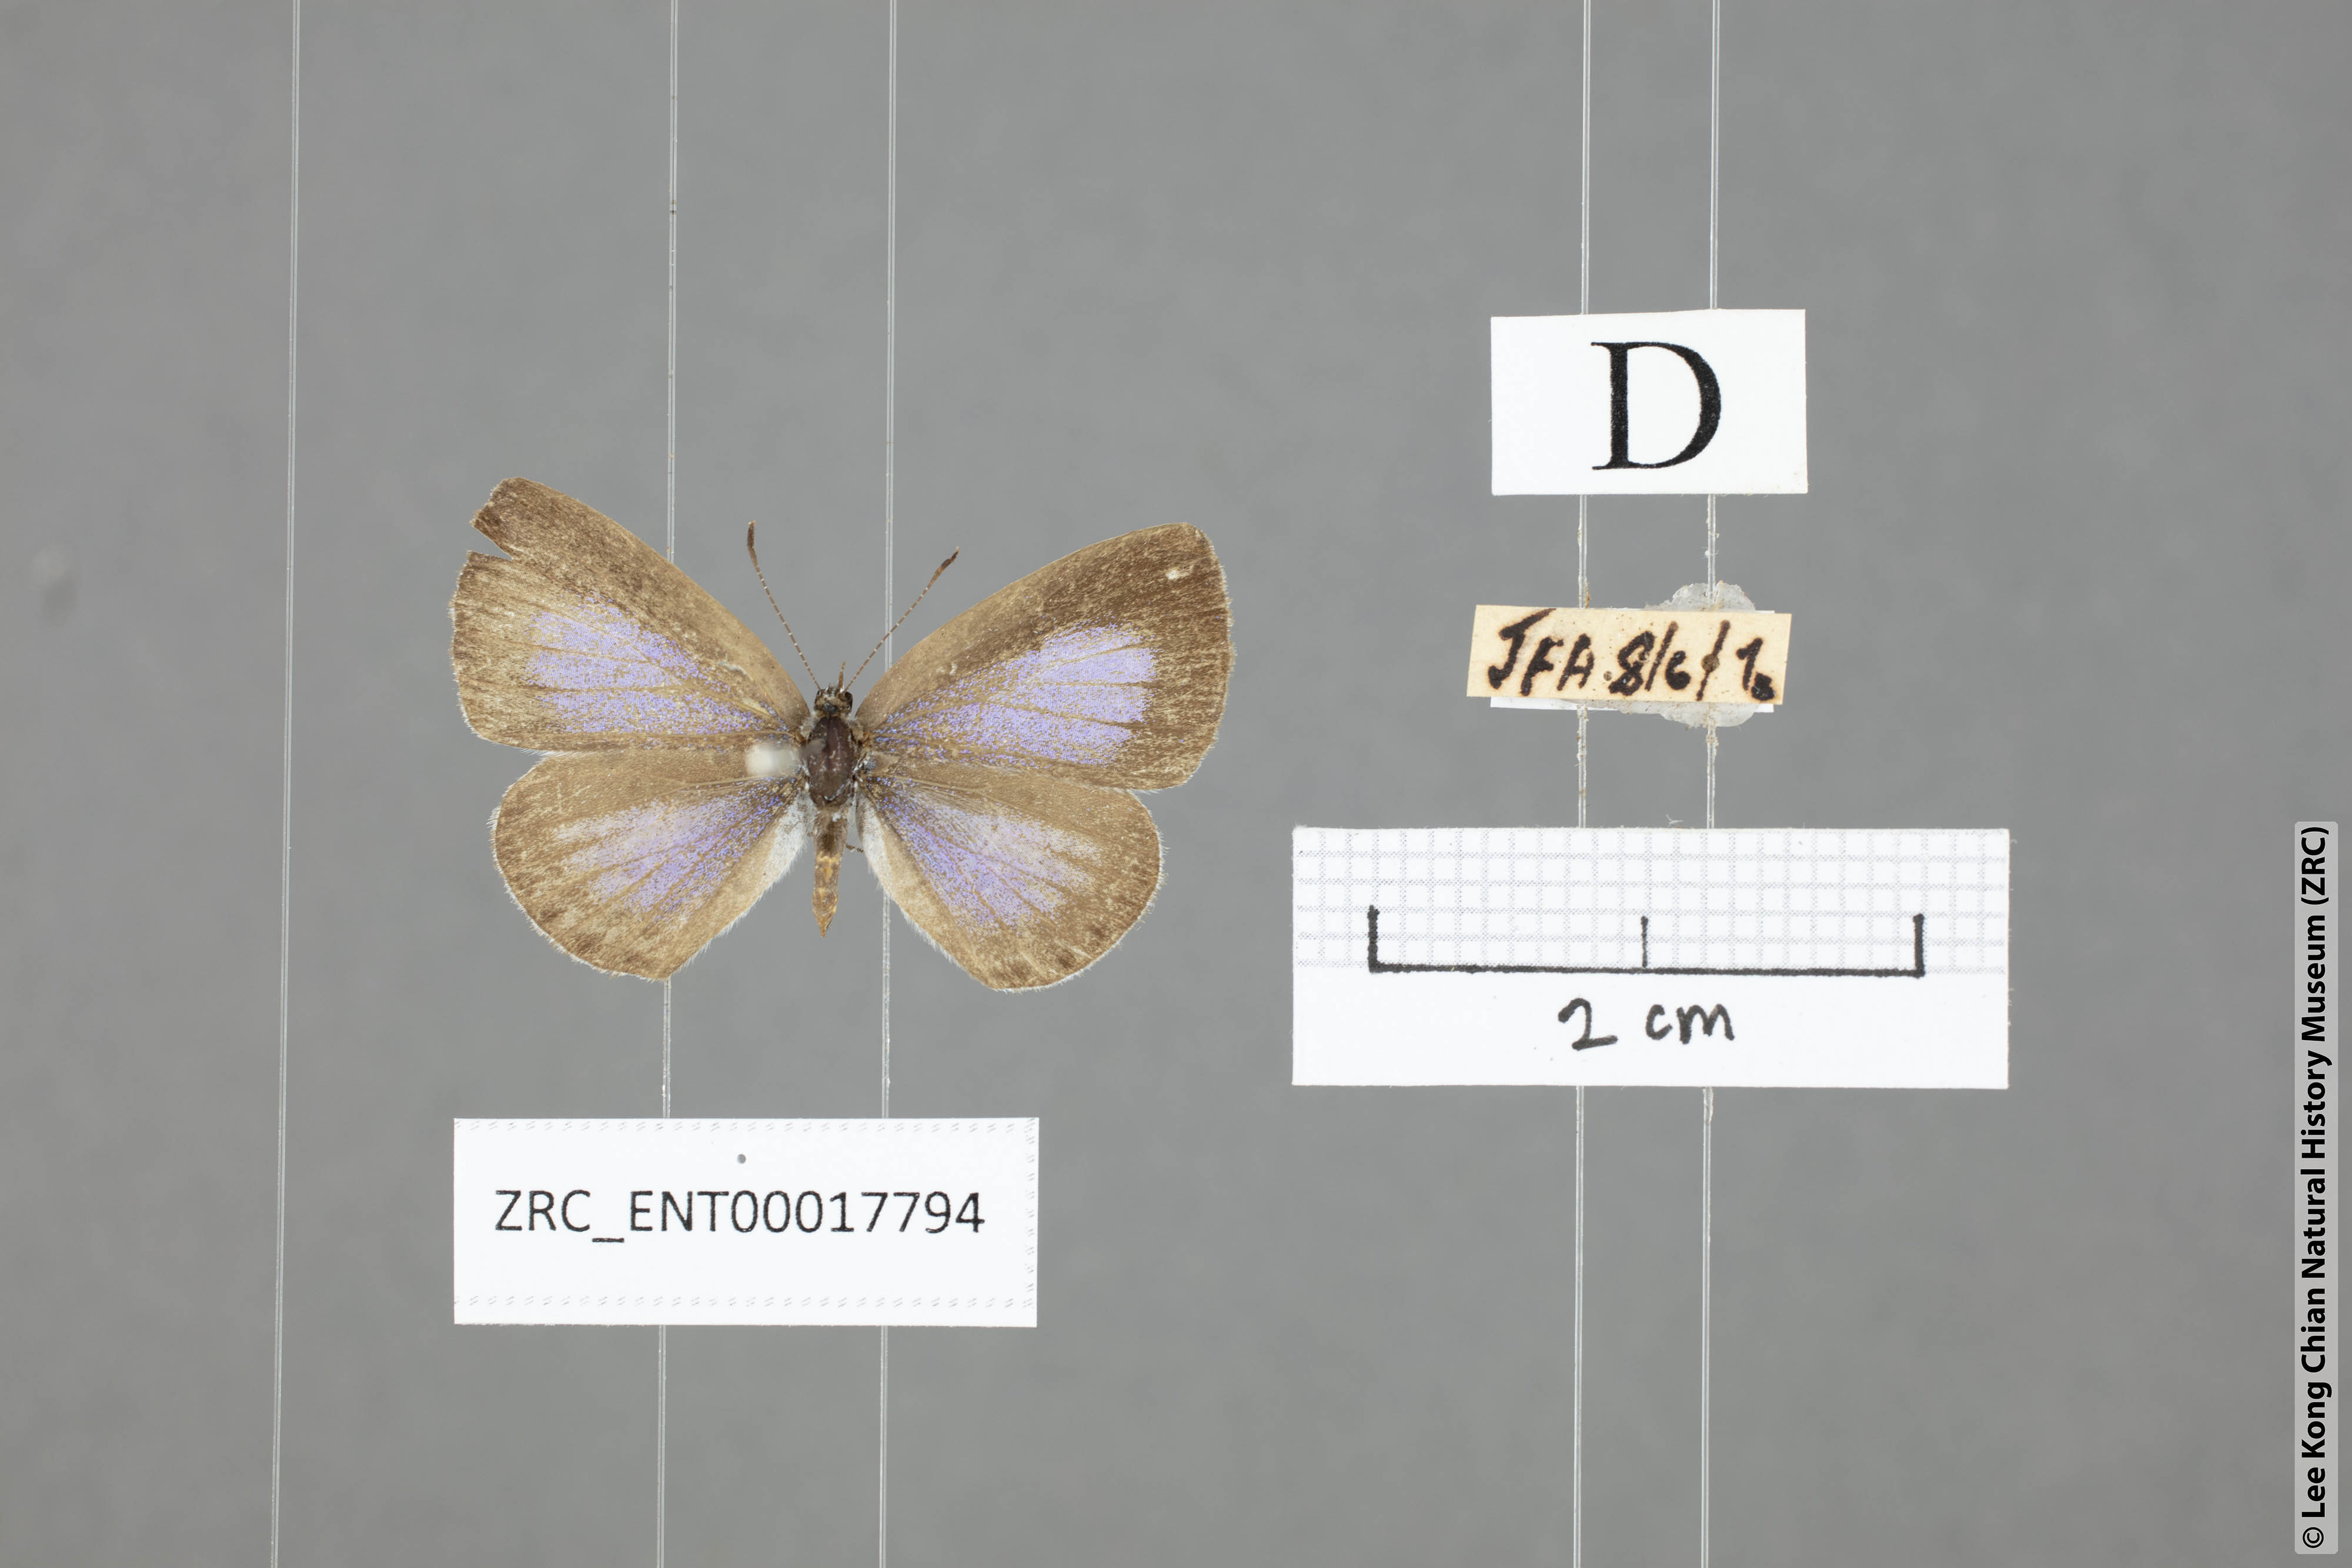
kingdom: Animalia
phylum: Arthropoda
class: Insecta
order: Lepidoptera
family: Lycaenidae
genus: Celastrina
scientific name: Celastrina lavendularis
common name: Plain hedge blue
